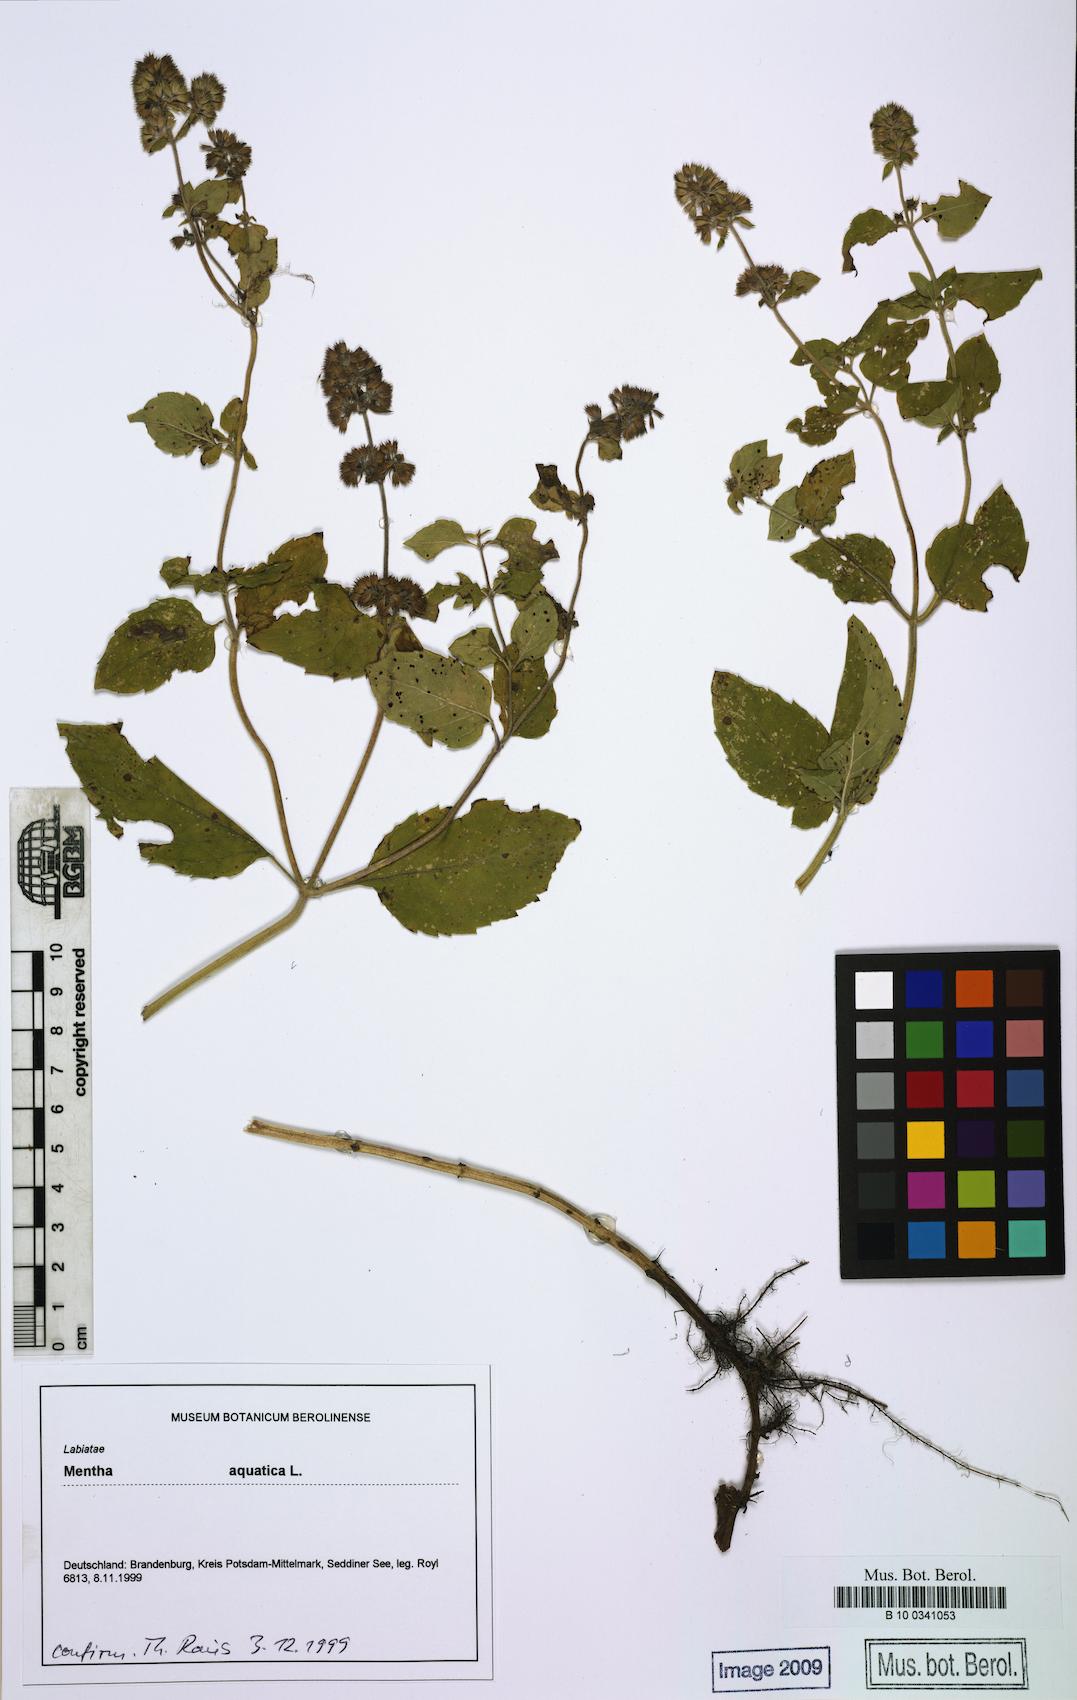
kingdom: Plantae
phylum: Tracheophyta
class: Magnoliopsida
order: Lamiales
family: Lamiaceae
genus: Mentha
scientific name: Mentha aquatica
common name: Water mint
